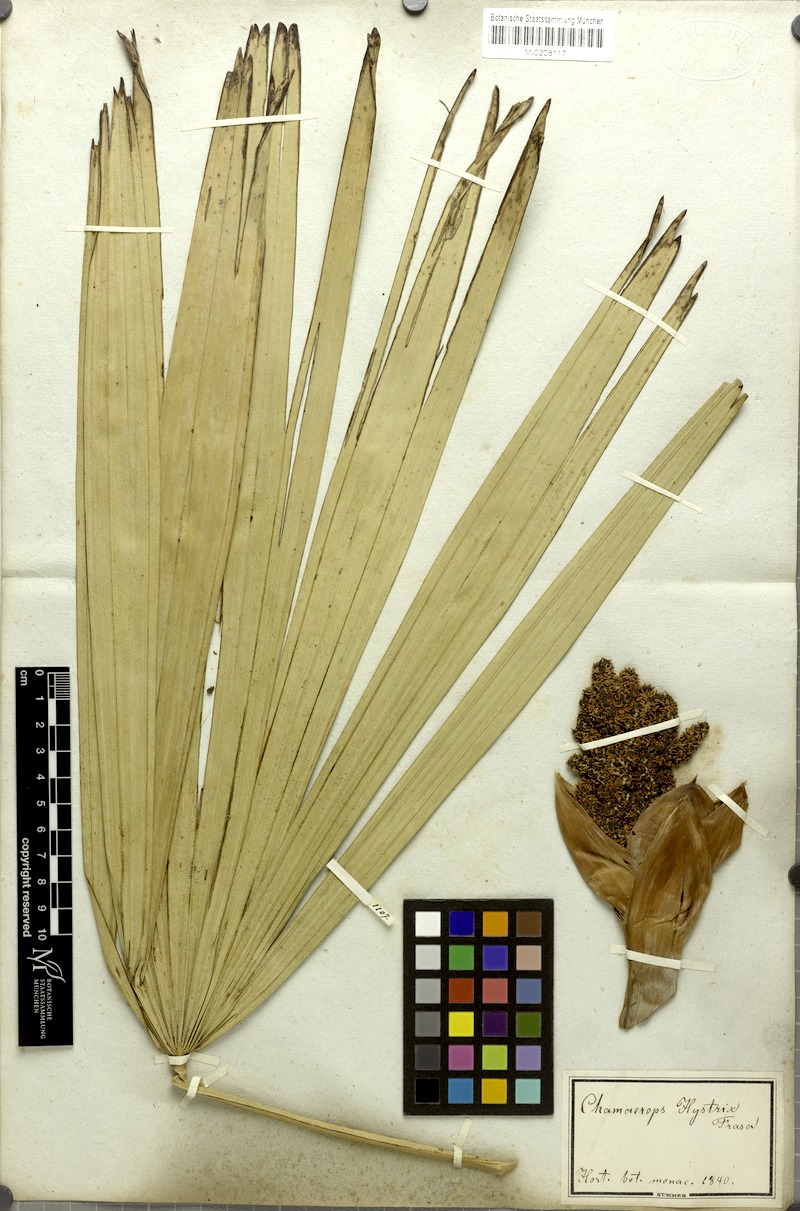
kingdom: Plantae
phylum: Tracheophyta
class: Liliopsida
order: Arecales
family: Arecaceae
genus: Rhapidophyllum
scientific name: Rhapidophyllum hystrix
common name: Porcupine palm
